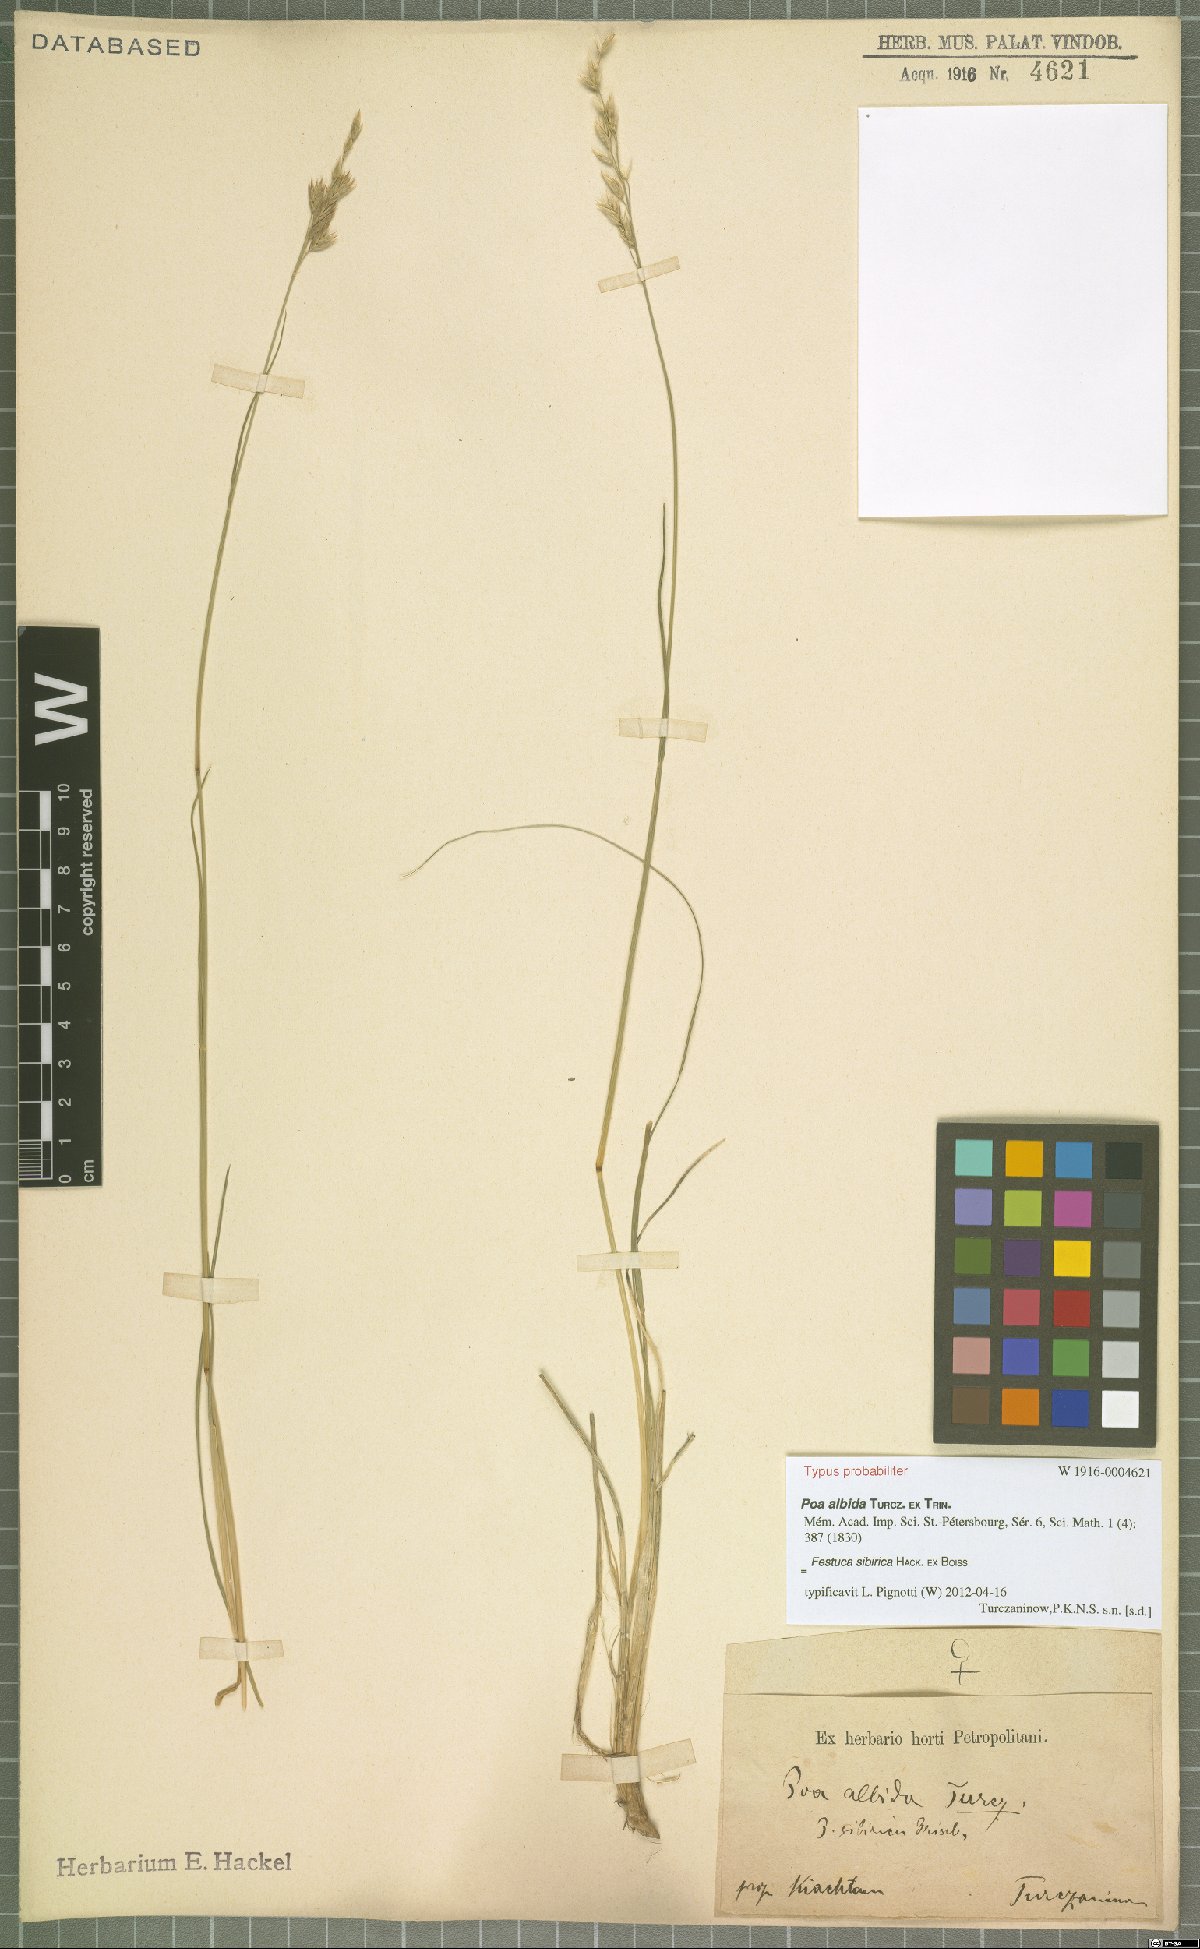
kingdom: Plantae
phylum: Tracheophyta
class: Liliopsida
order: Poales
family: Poaceae
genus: Festuca
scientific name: Festuca sibirica
